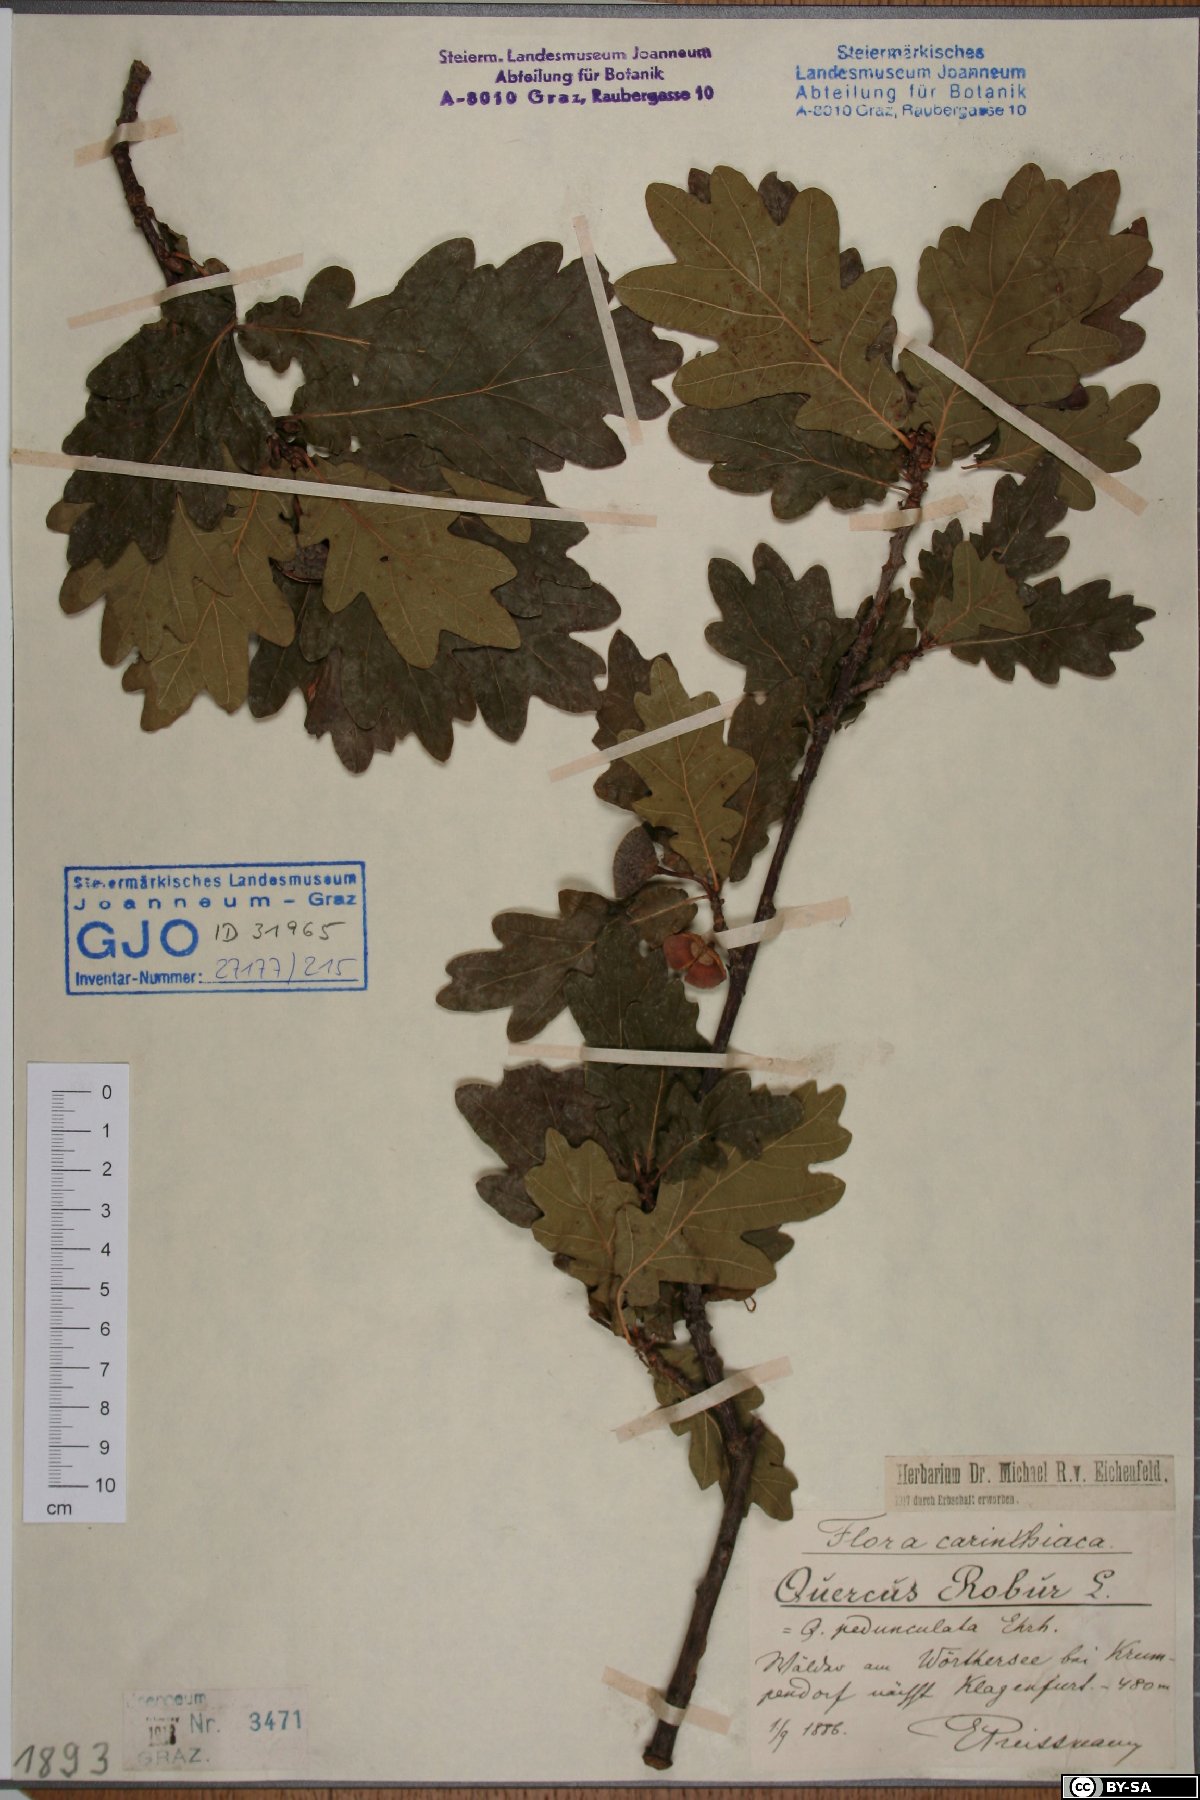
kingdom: Plantae
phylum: Tracheophyta
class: Magnoliopsida
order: Fagales
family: Fagaceae
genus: Quercus
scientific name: Quercus robur
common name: Pedunculate oak
